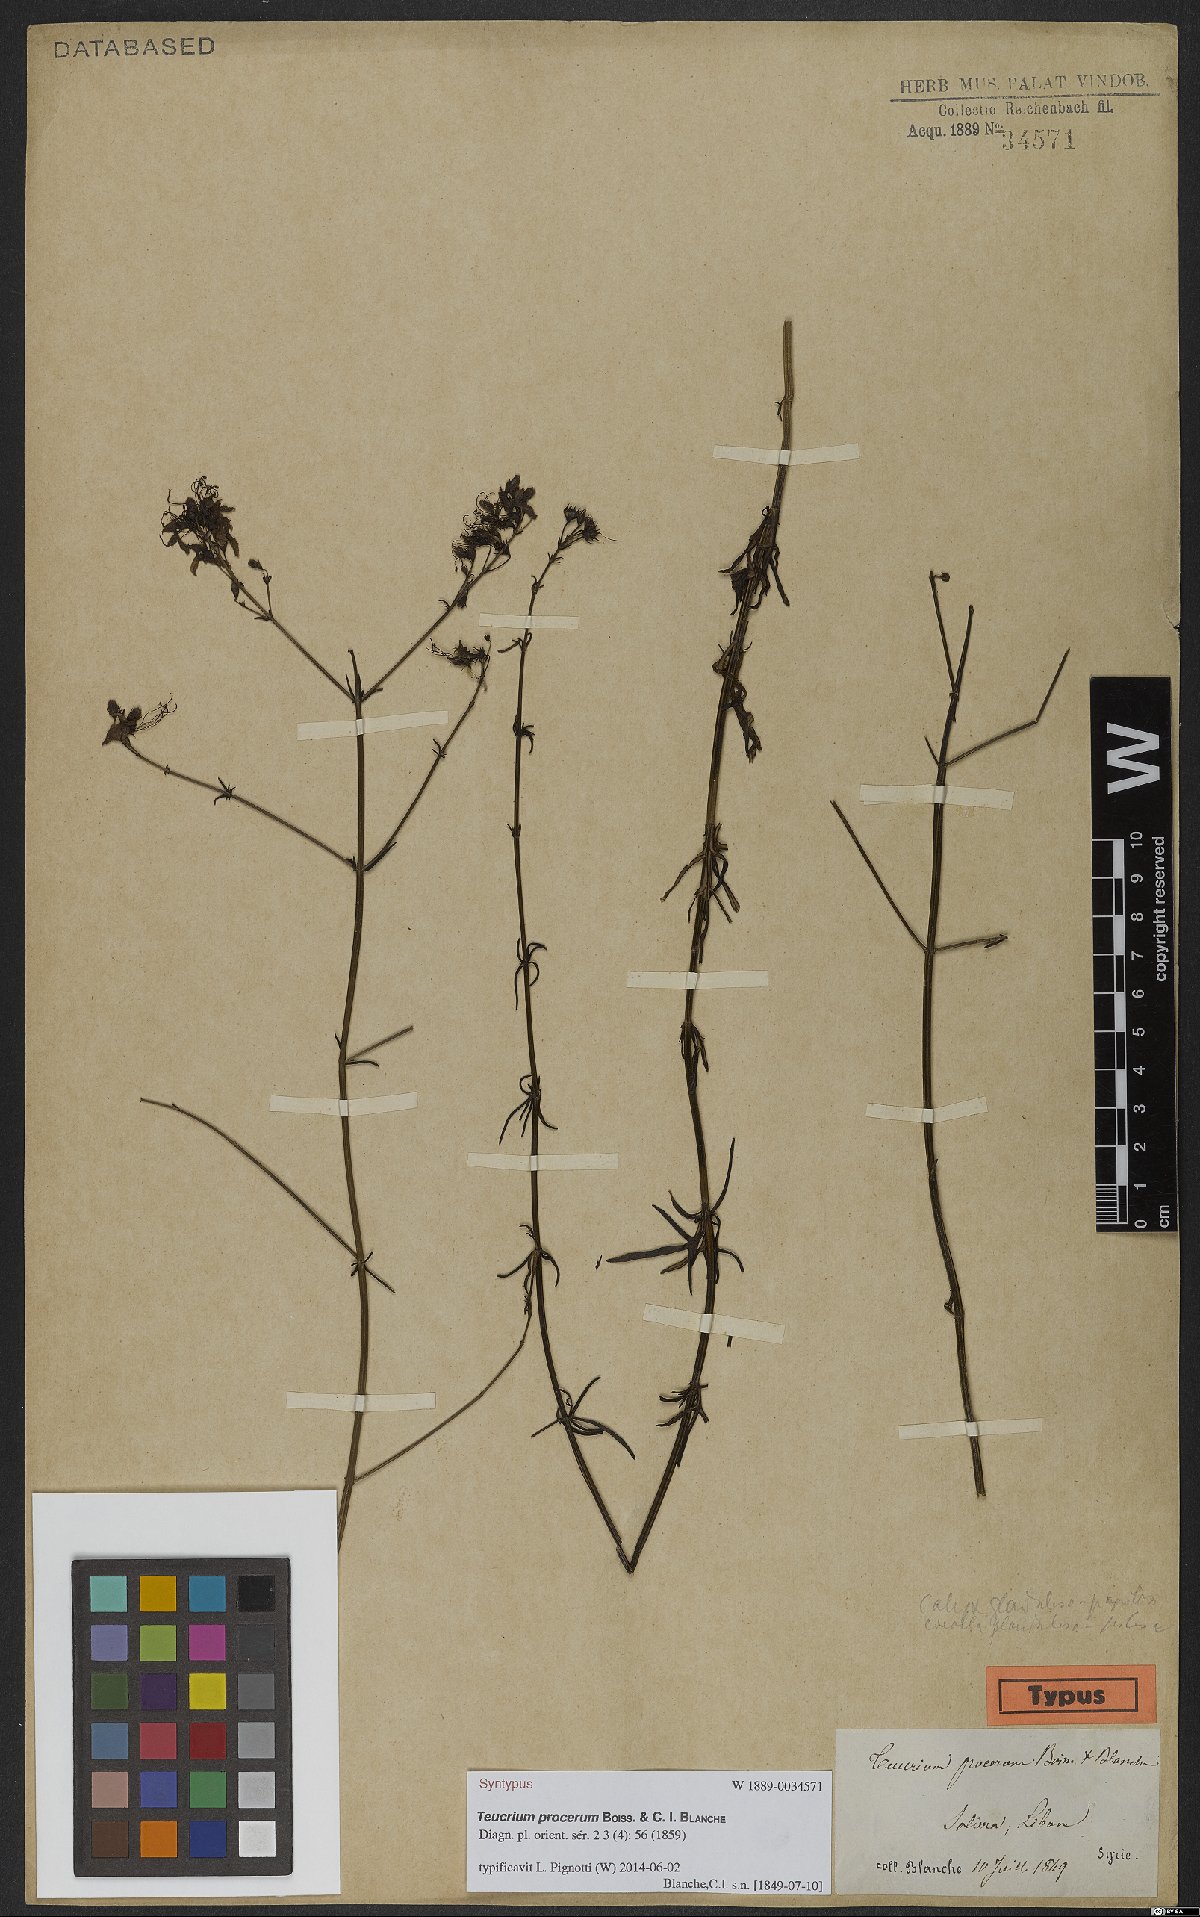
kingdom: Plantae
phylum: Tracheophyta
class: Magnoliopsida
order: Lamiales
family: Lamiaceae
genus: Teucrium
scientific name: Teucrium procerum
